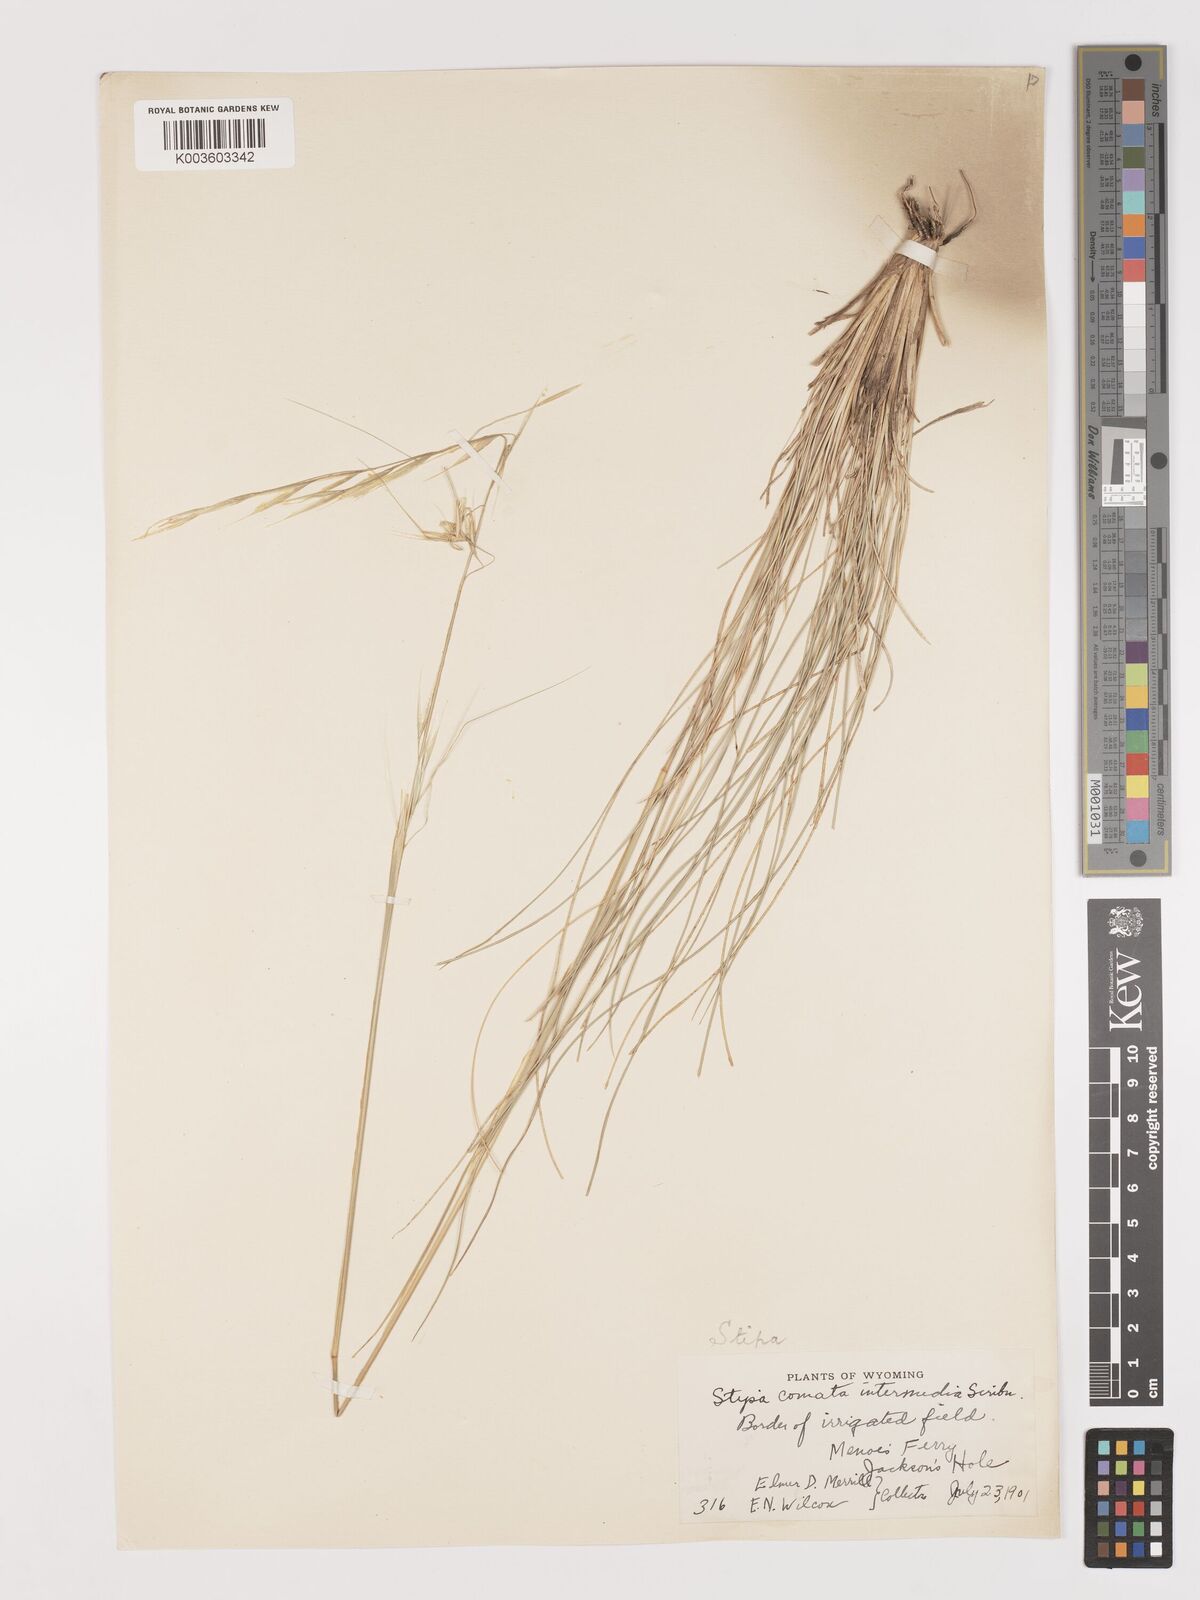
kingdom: Plantae
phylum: Tracheophyta
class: Liliopsida
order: Poales
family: Poaceae
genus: Hesperostipa
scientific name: Hesperostipa comata
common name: Needle-and-thread grass
